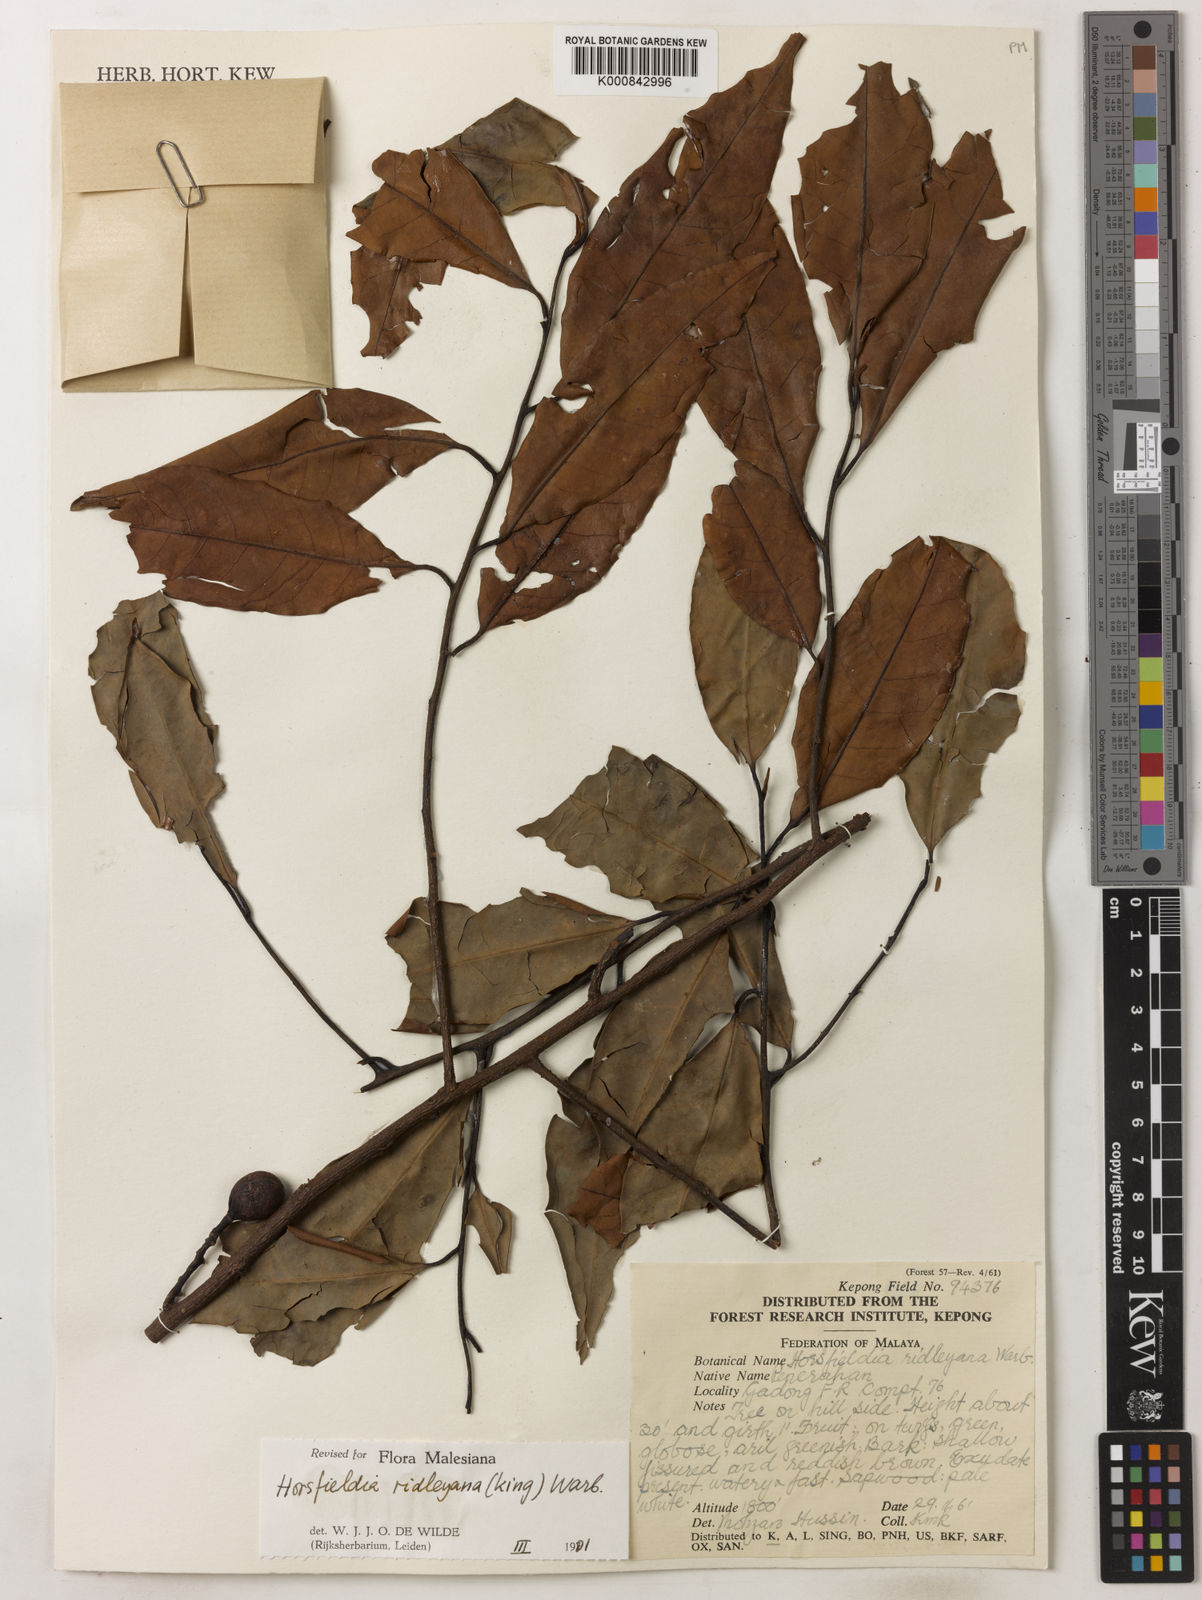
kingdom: Plantae
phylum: Tracheophyta
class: Magnoliopsida
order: Magnoliales
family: Myristicaceae
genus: Horsfieldia
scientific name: Horsfieldia ridleyana
